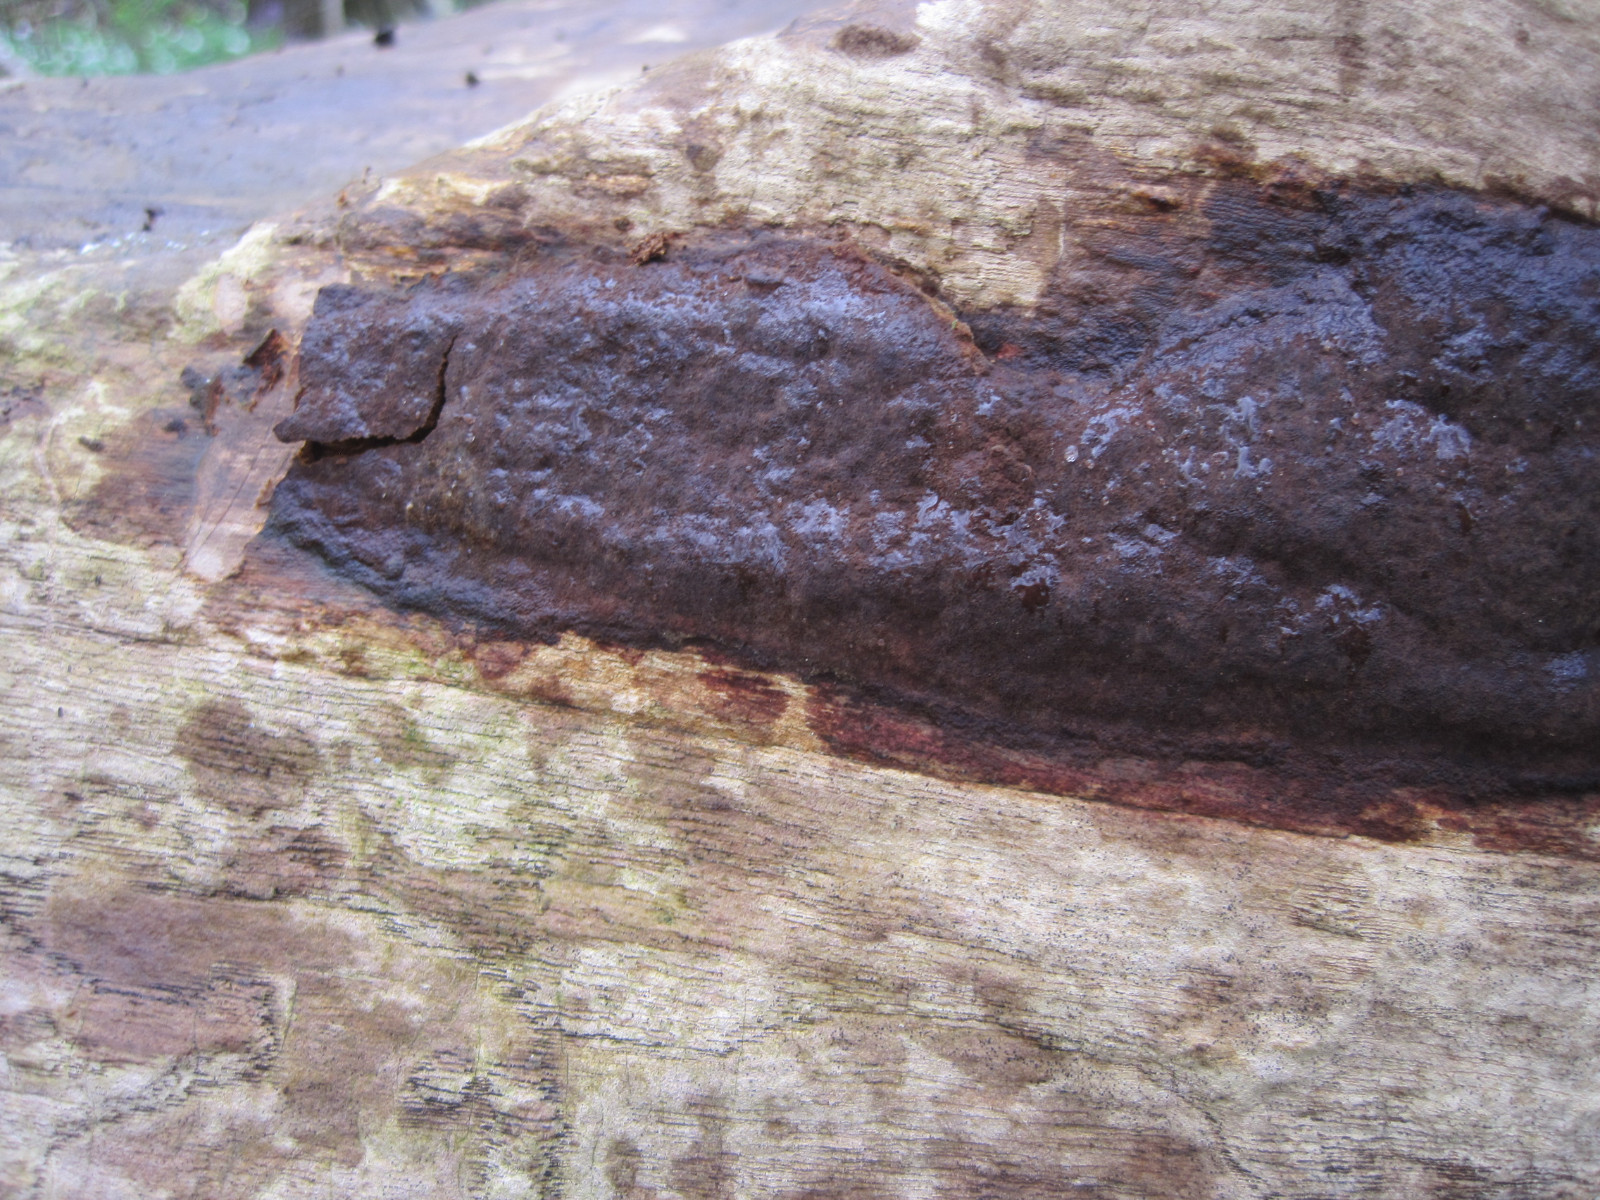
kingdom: Fungi
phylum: Basidiomycota
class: Agaricomycetes
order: Hymenochaetales
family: Hymenochaetaceae
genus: Fuscoporia
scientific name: Fuscoporia ferrea
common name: skorpe-ildporesvamp
